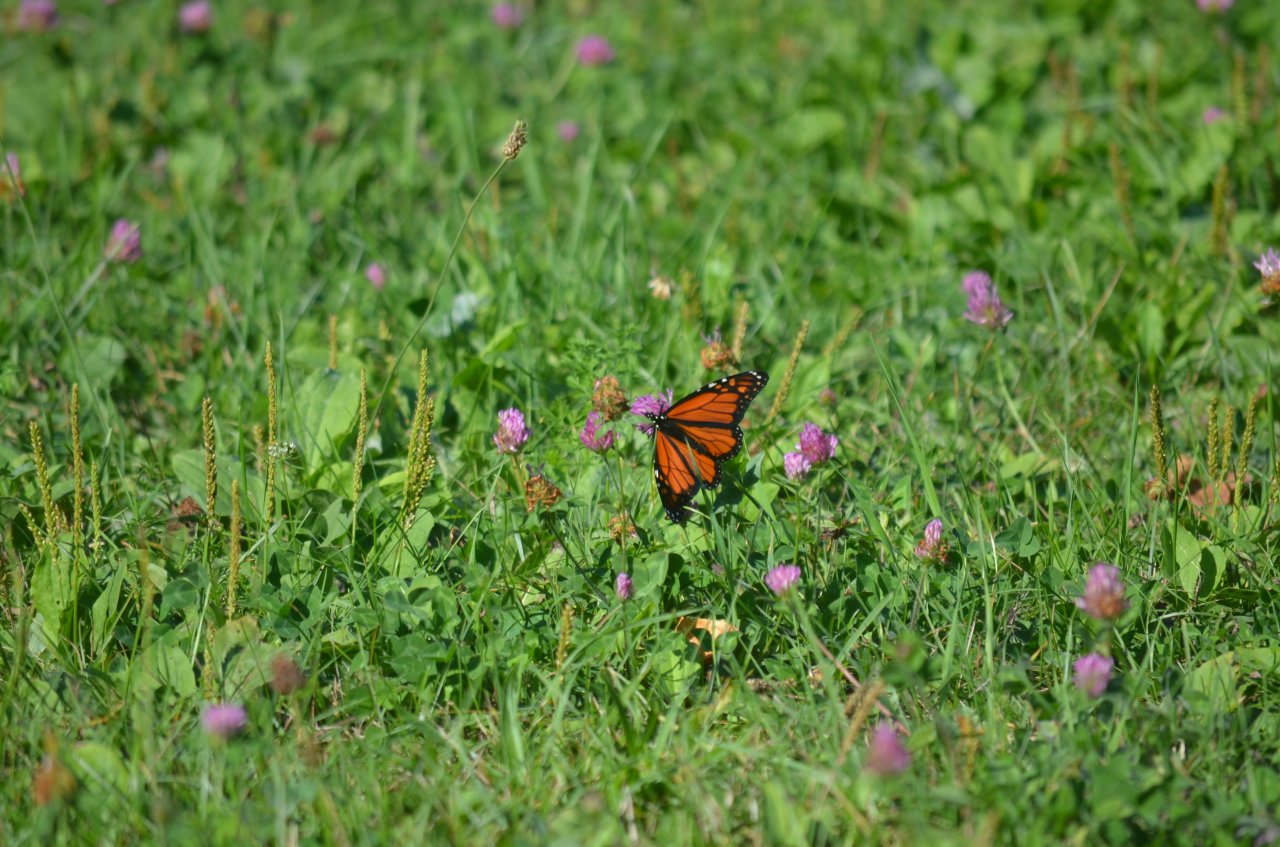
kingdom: Animalia
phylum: Arthropoda
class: Insecta
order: Lepidoptera
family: Nymphalidae
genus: Danaus
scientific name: Danaus plexippus
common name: Monarch
